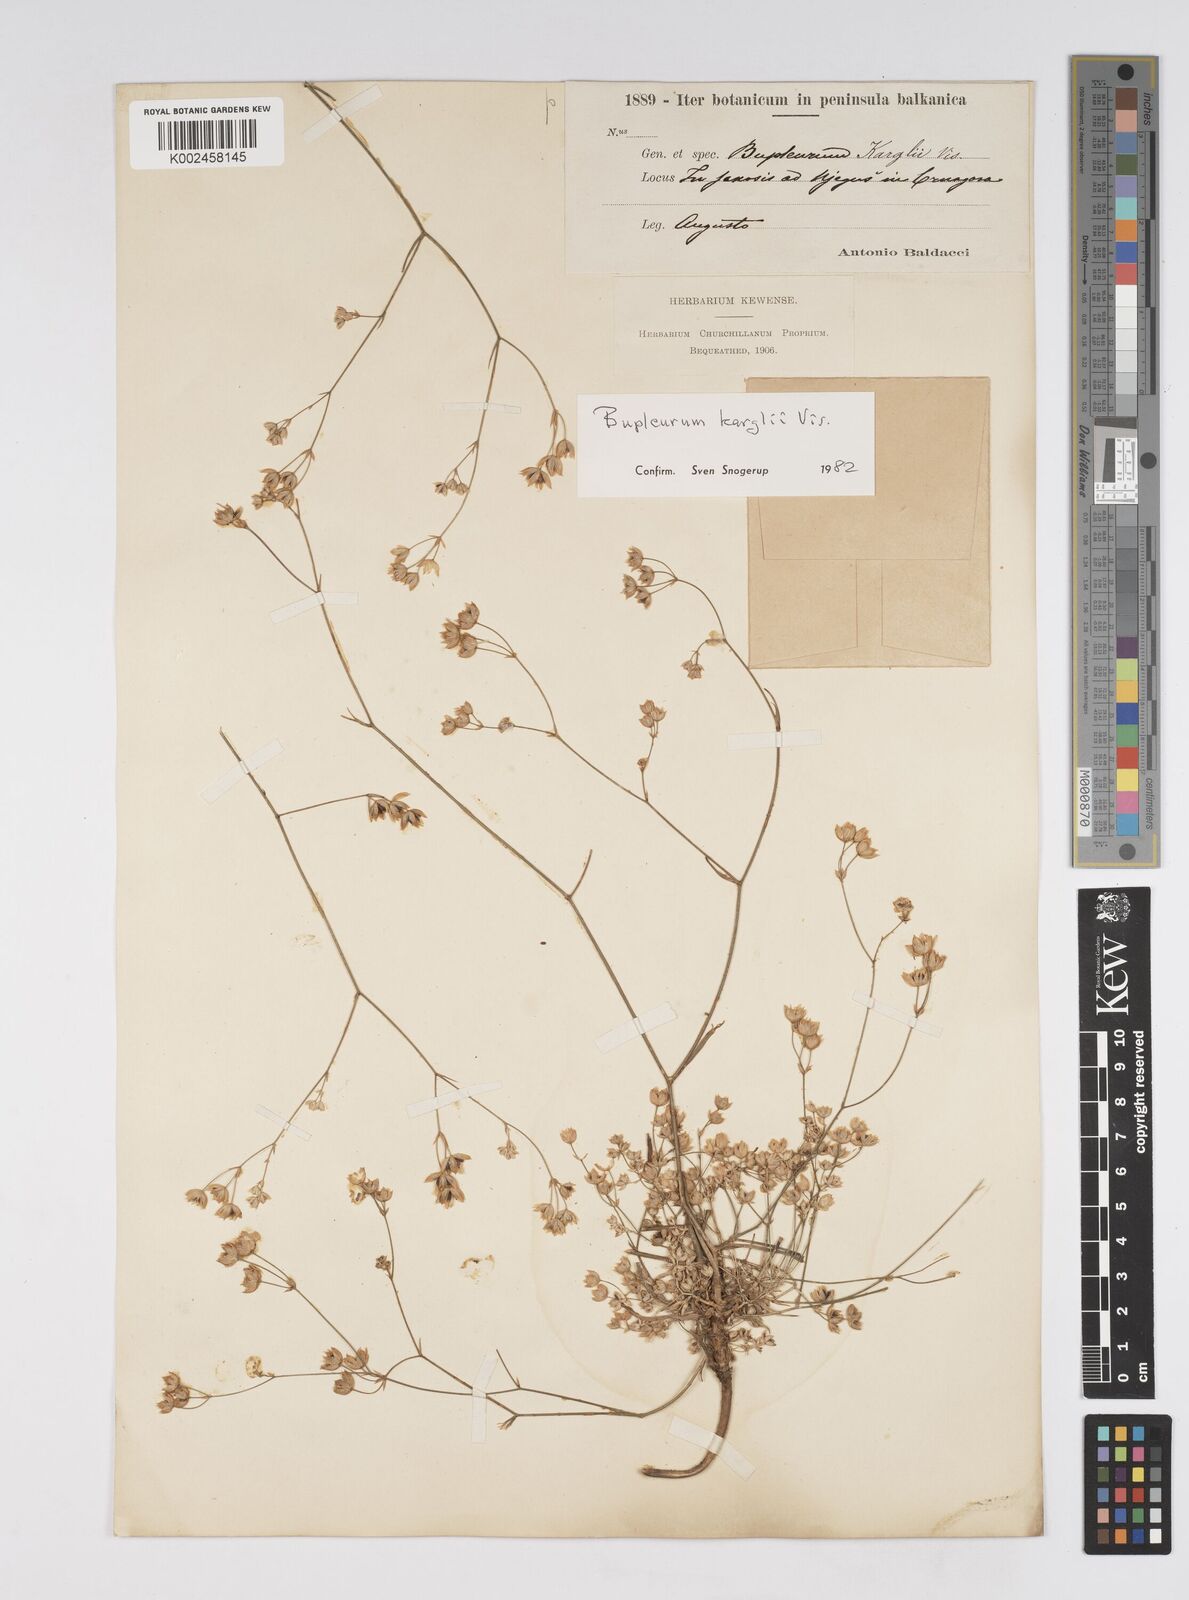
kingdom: Plantae
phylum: Tracheophyta
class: Magnoliopsida
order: Apiales
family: Apiaceae
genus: Bupleurum
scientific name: Bupleurum karglii
